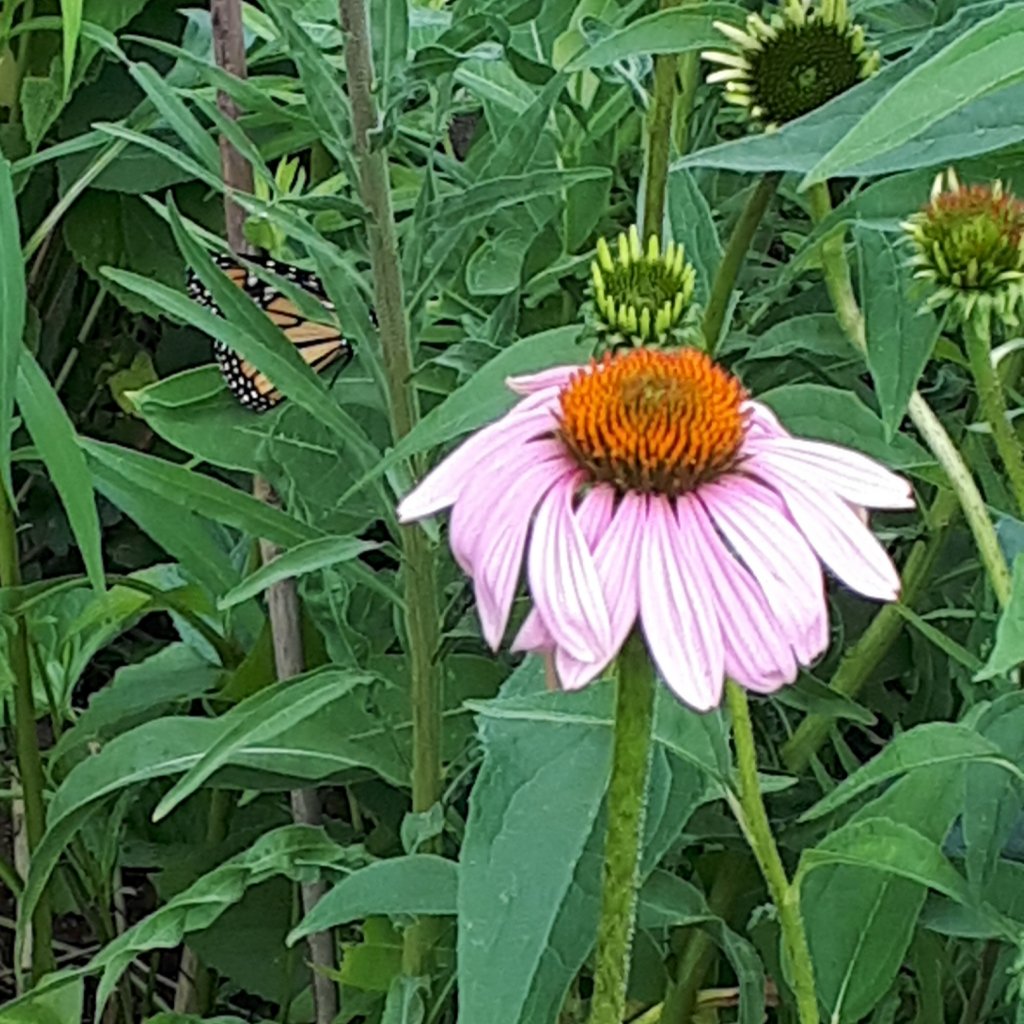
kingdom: Animalia
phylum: Arthropoda
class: Insecta
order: Lepidoptera
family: Nymphalidae
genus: Danaus
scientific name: Danaus plexippus
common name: Monarch
